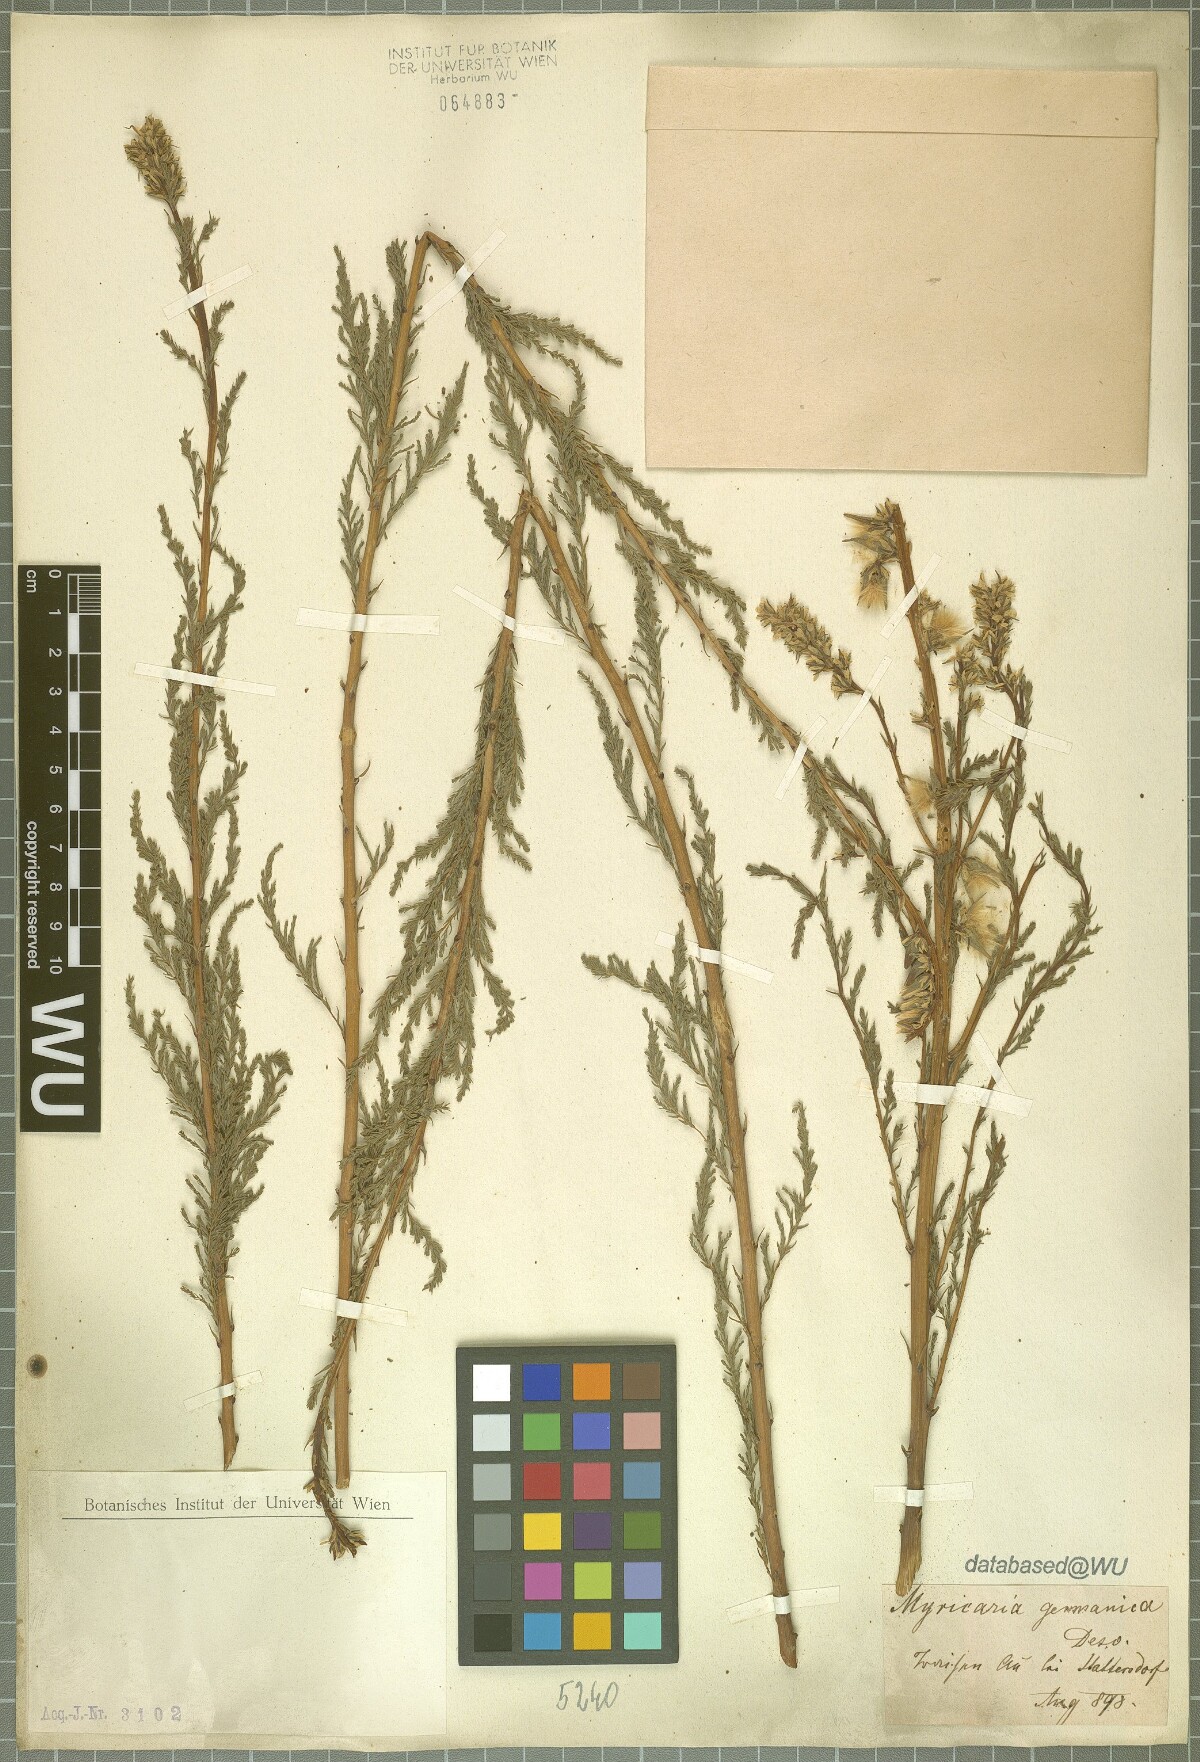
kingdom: Plantae
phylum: Tracheophyta
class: Magnoliopsida
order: Caryophyllales
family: Tamaricaceae
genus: Myricaria
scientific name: Myricaria germanica
